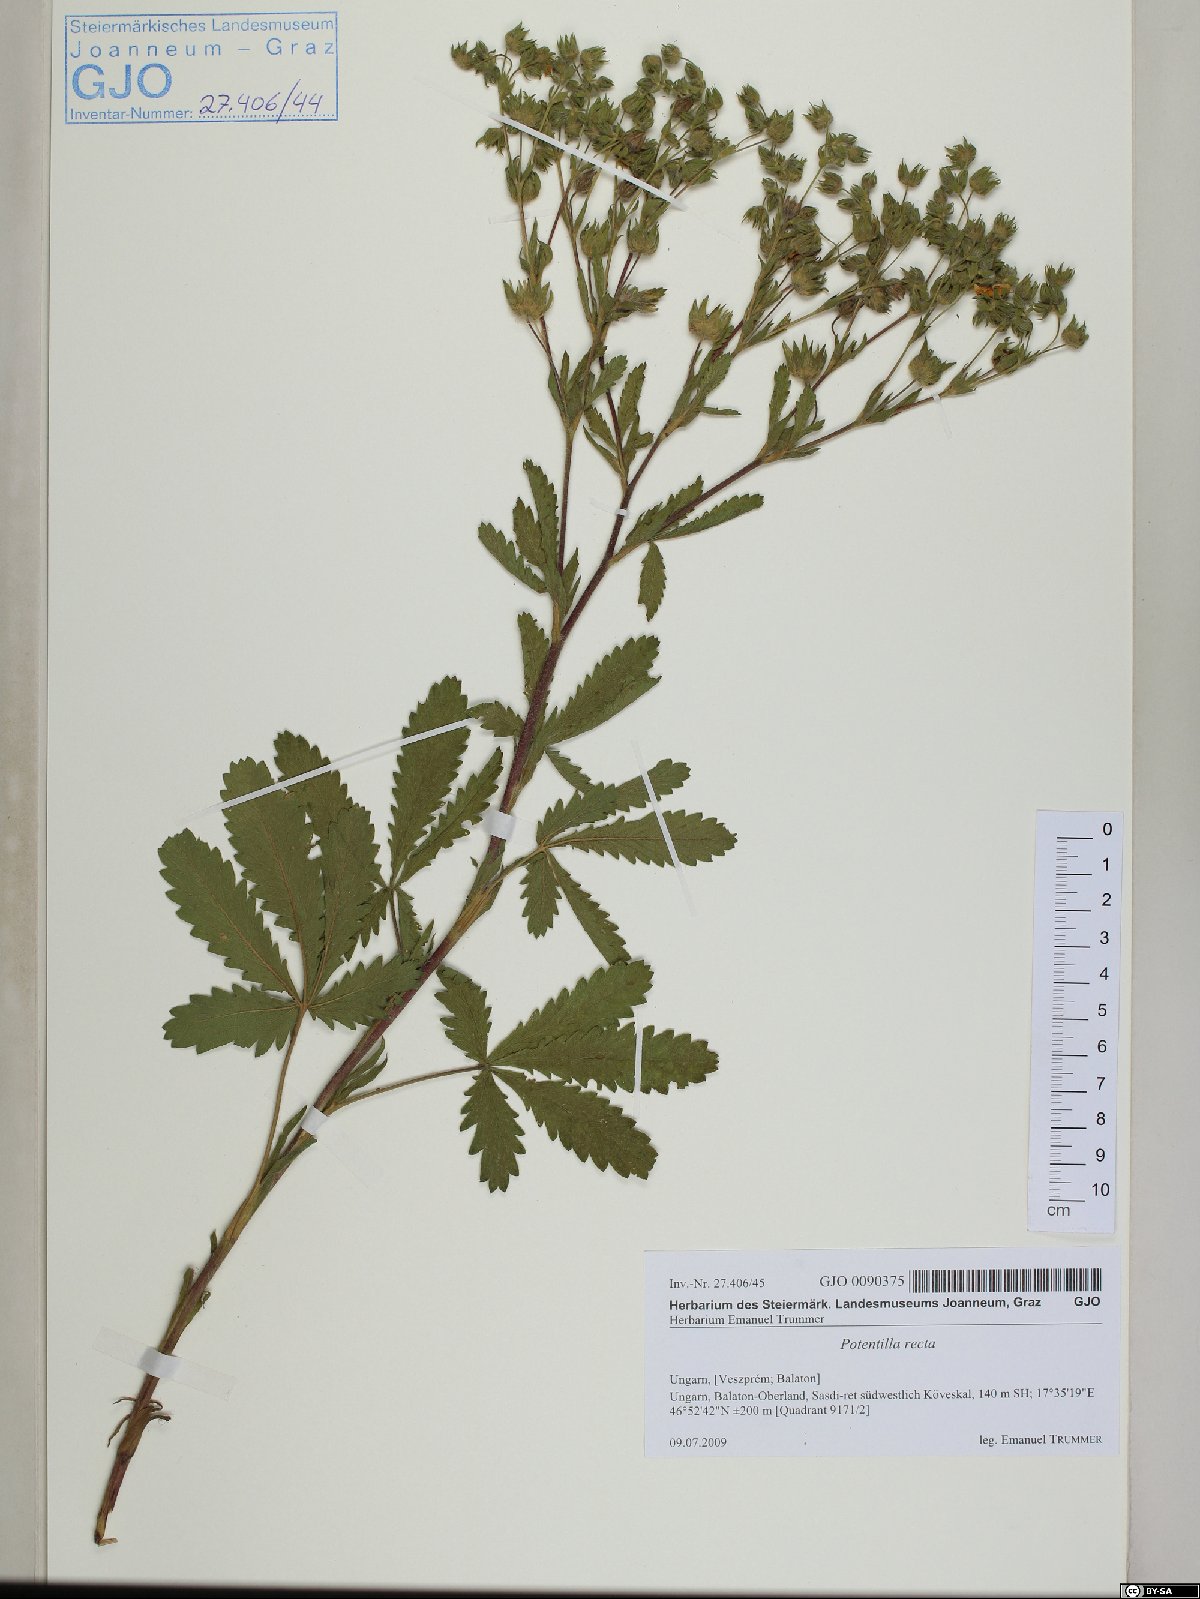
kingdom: Plantae
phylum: Tracheophyta
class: Magnoliopsida
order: Rosales
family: Rosaceae
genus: Potentilla
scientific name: Potentilla recta
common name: Sulphur cinquefoil
